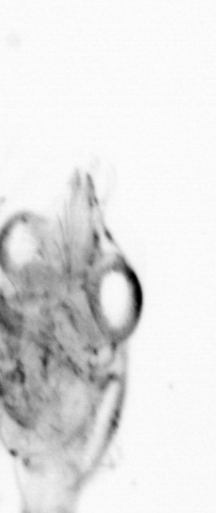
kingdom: Animalia
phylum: Arthropoda
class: Copepoda
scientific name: Copepoda
